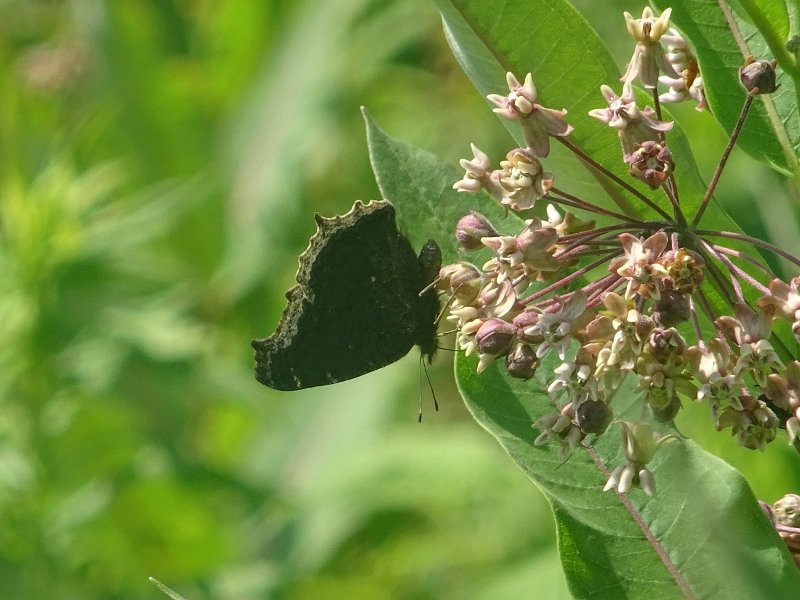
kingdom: Animalia
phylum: Arthropoda
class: Insecta
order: Lepidoptera
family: Nymphalidae
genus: Nymphalis
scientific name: Nymphalis antiopa
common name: Mourning Cloak
